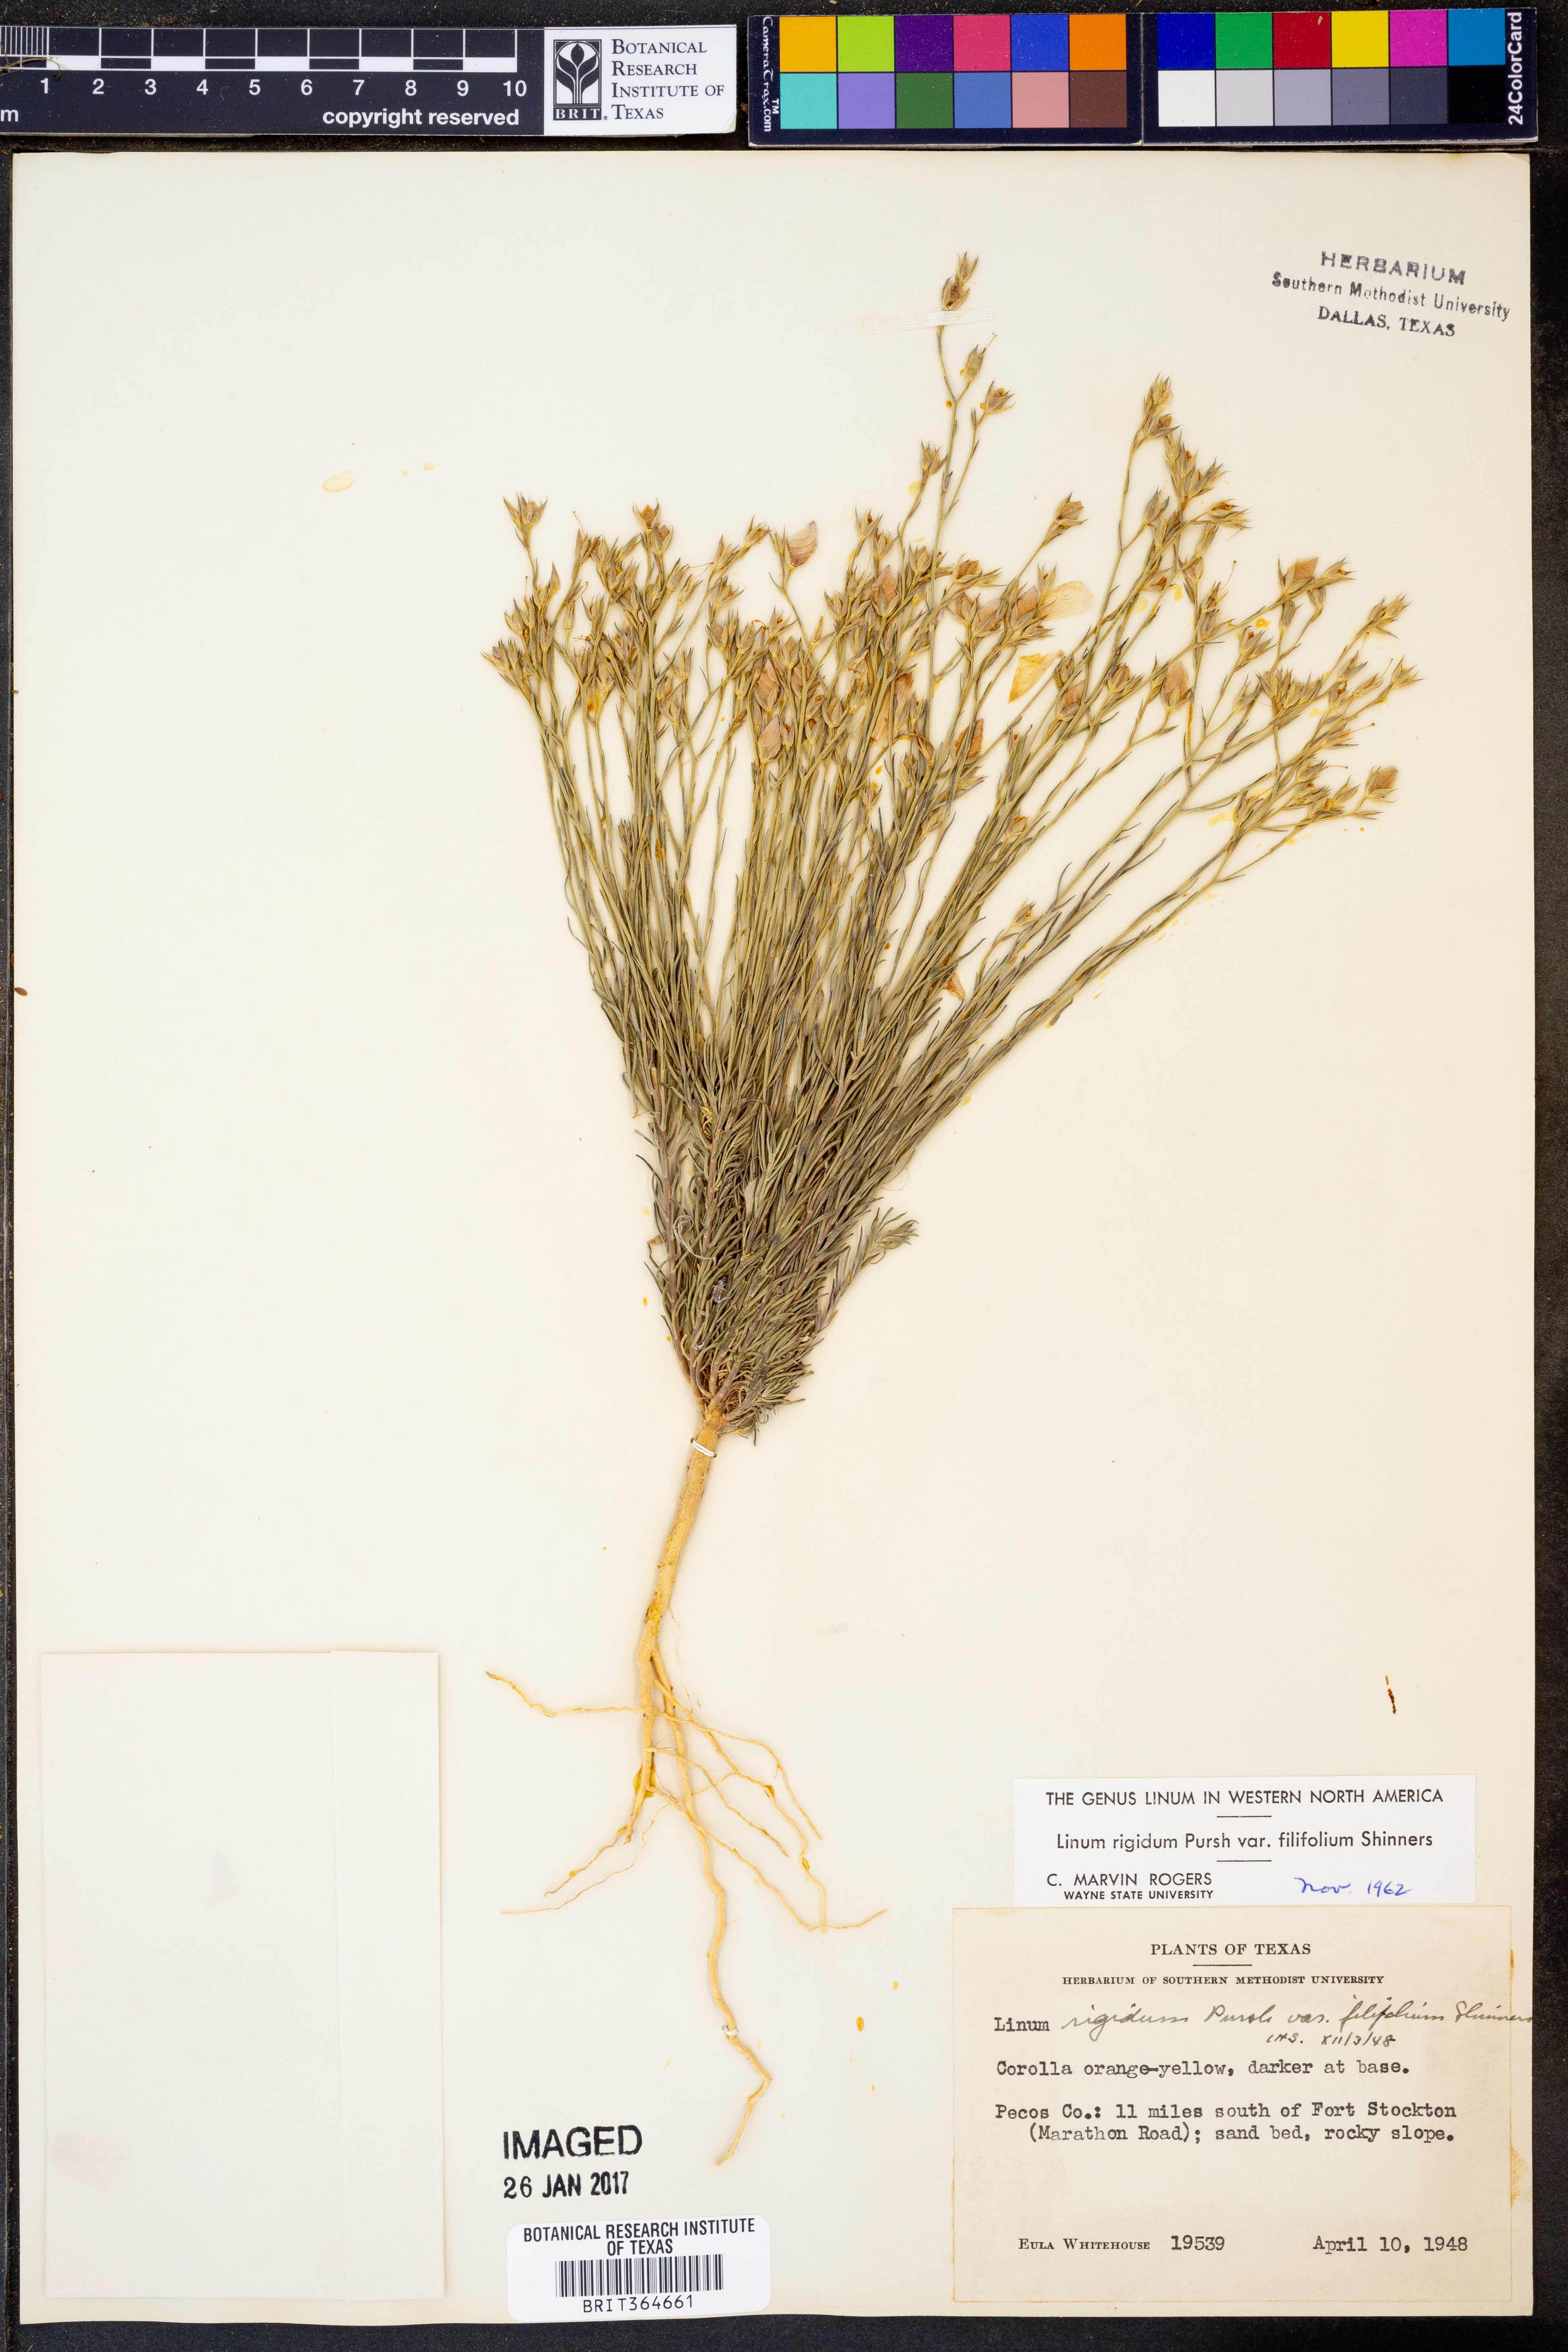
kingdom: Plantae
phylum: Tracheophyta
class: Magnoliopsida
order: Malpighiales
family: Linaceae
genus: Linum
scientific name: Linum berlandieri
